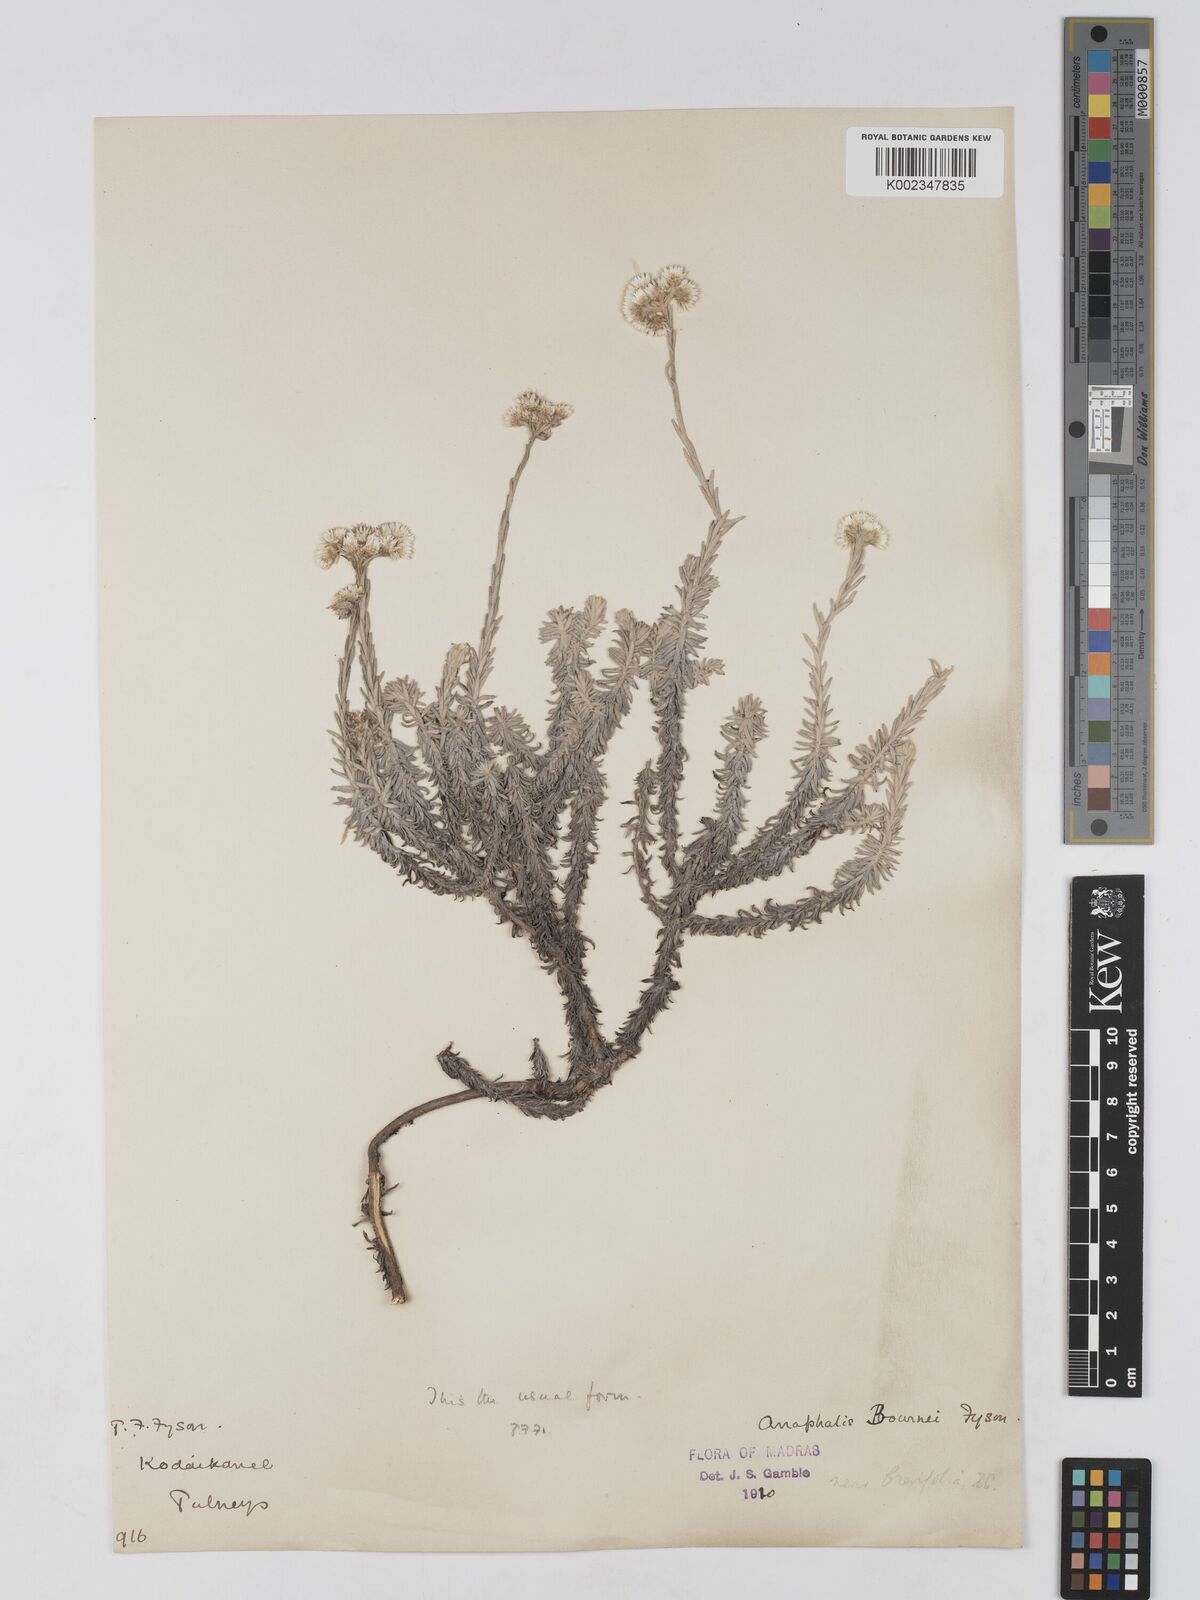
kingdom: Plantae
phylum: Tracheophyta
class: Magnoliopsida
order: Asterales
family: Asteraceae
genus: Anaphalis
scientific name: Anaphalis brevifolia
